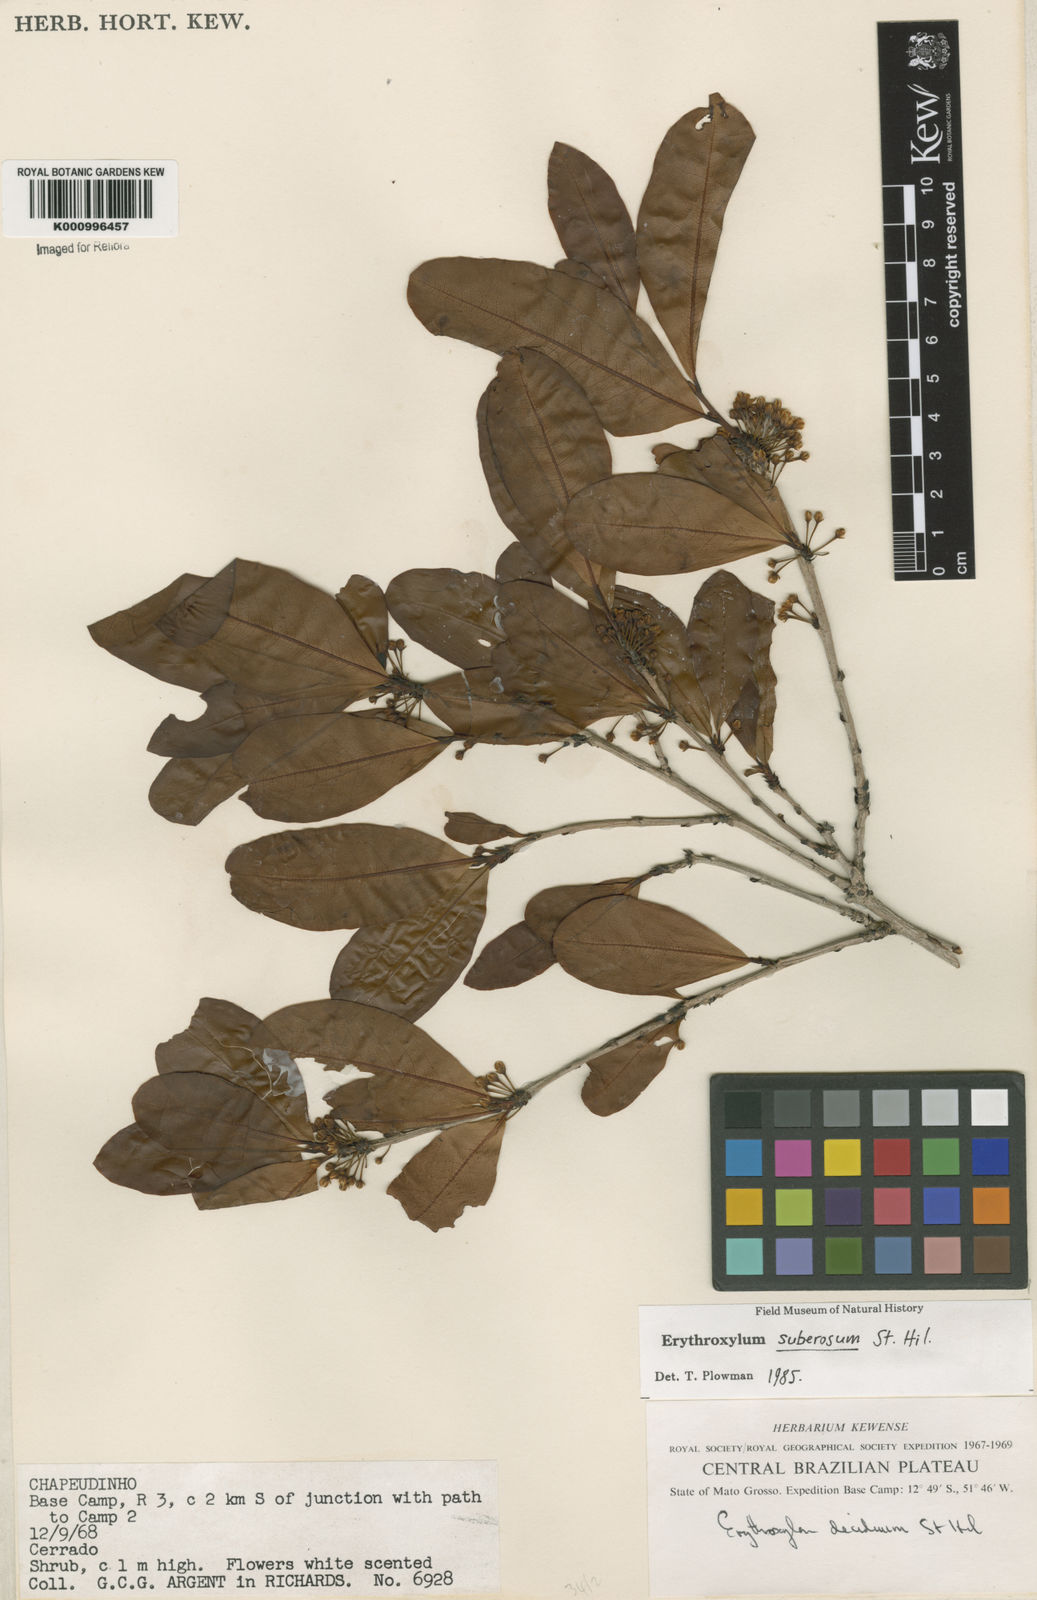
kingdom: Plantae
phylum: Tracheophyta
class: Magnoliopsida
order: Malpighiales
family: Erythroxylaceae
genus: Erythroxylum
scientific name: Erythroxylum suberosum
